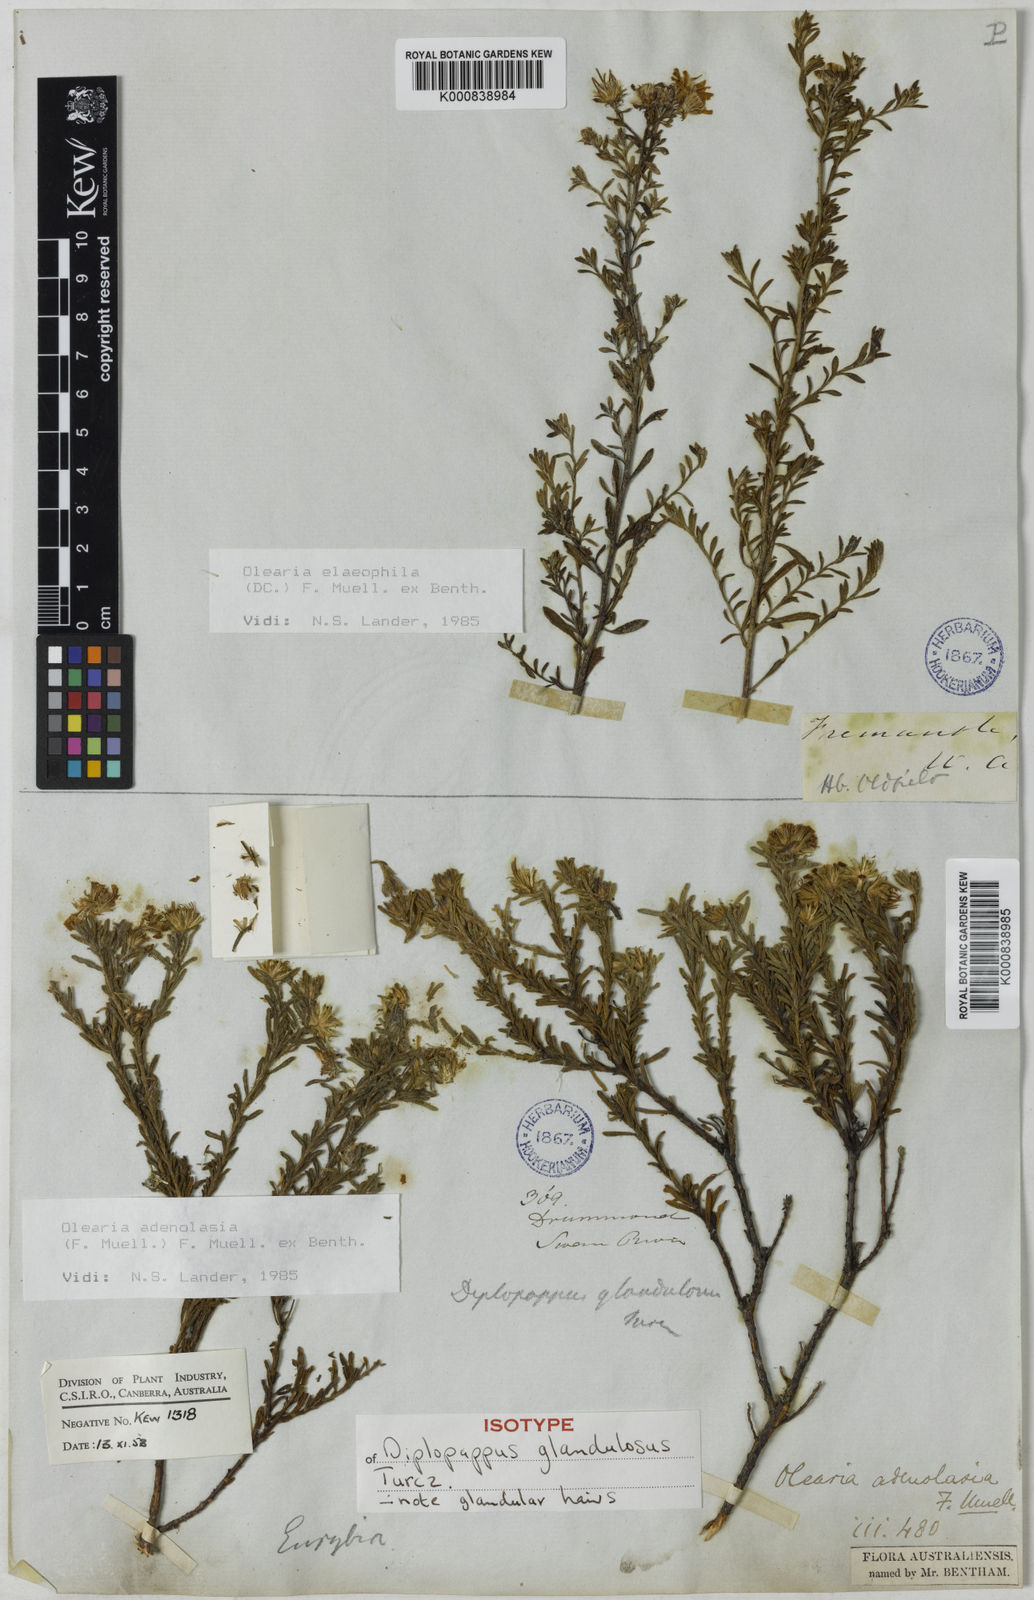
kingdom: Plantae
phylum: Tracheophyta
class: Magnoliopsida
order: Asterales
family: Asteraceae
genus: Olearia
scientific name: Olearia adenolasia
